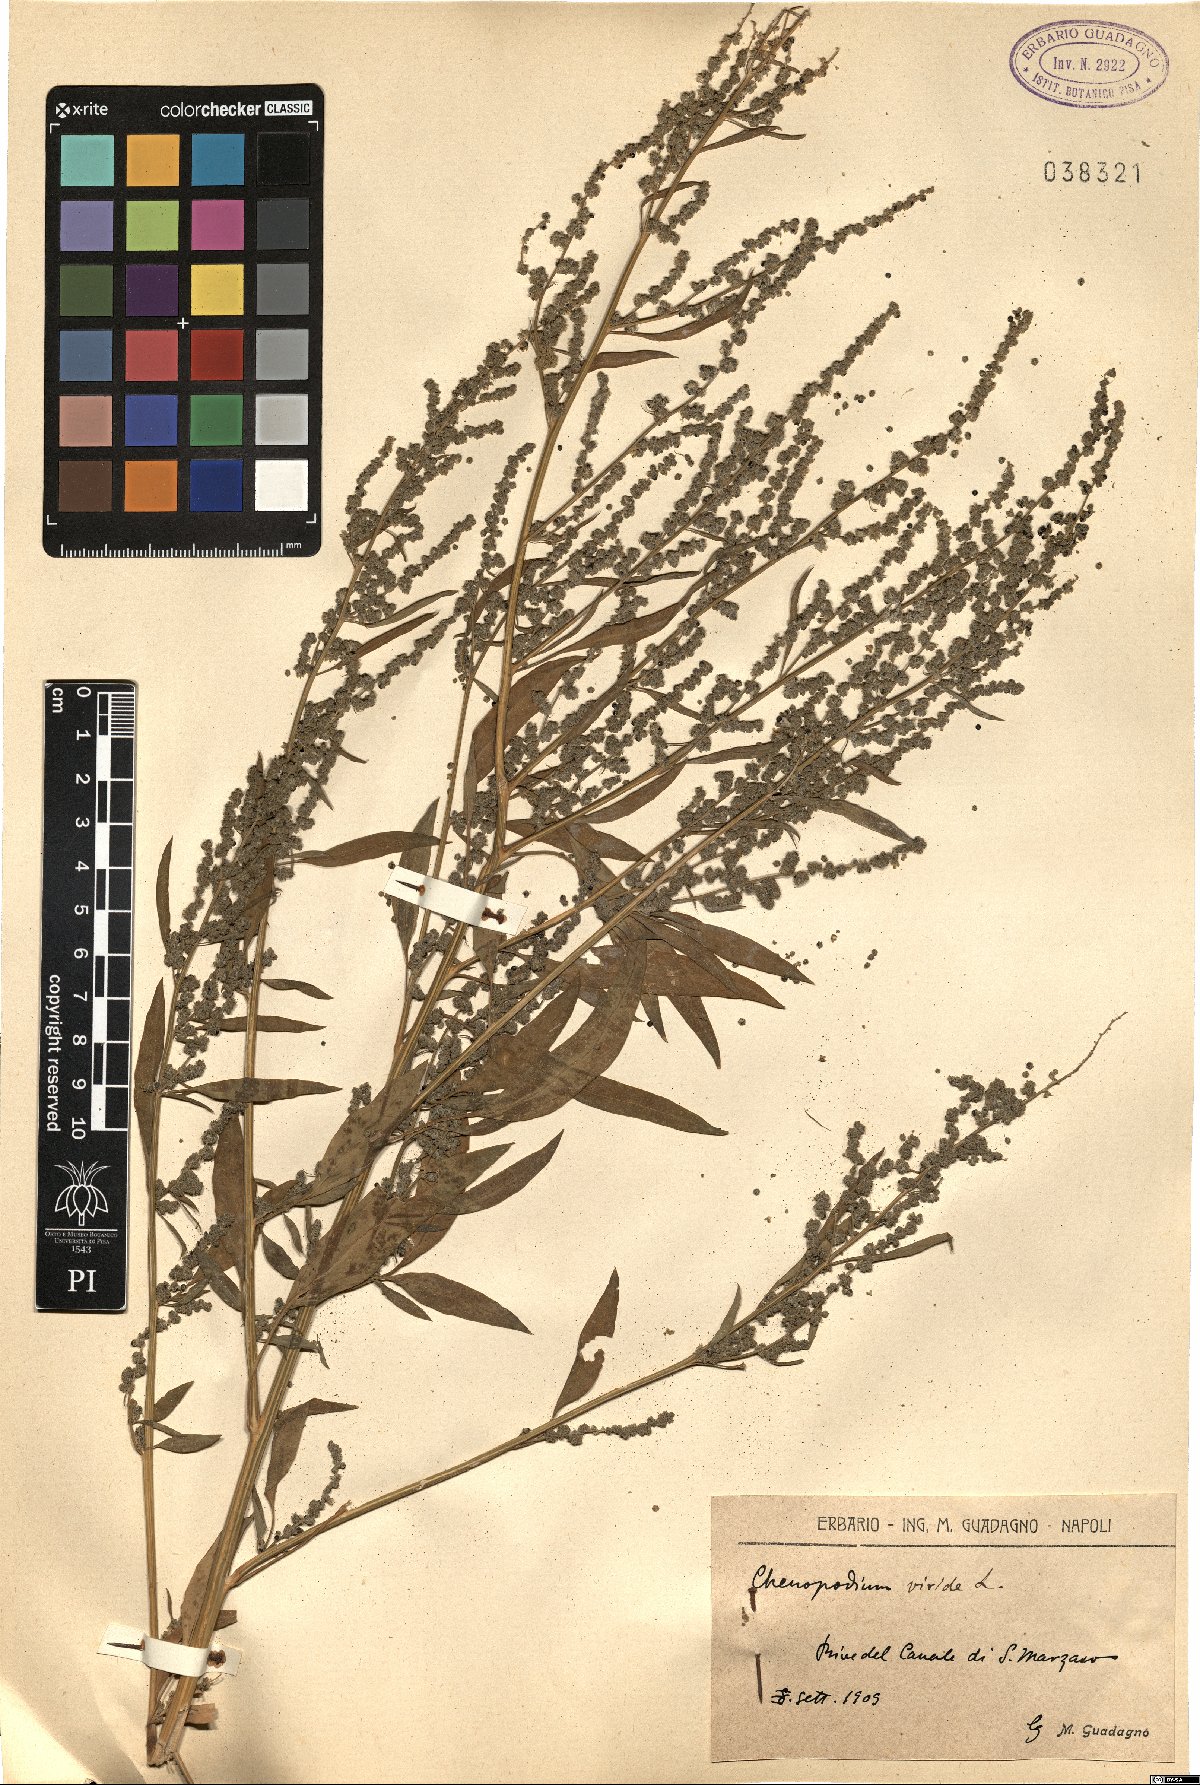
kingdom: Plantae
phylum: Tracheophyta
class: Magnoliopsida
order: Caryophyllales
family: Amaranthaceae
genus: Chenopodium
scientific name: Chenopodium album
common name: Fat-hen
